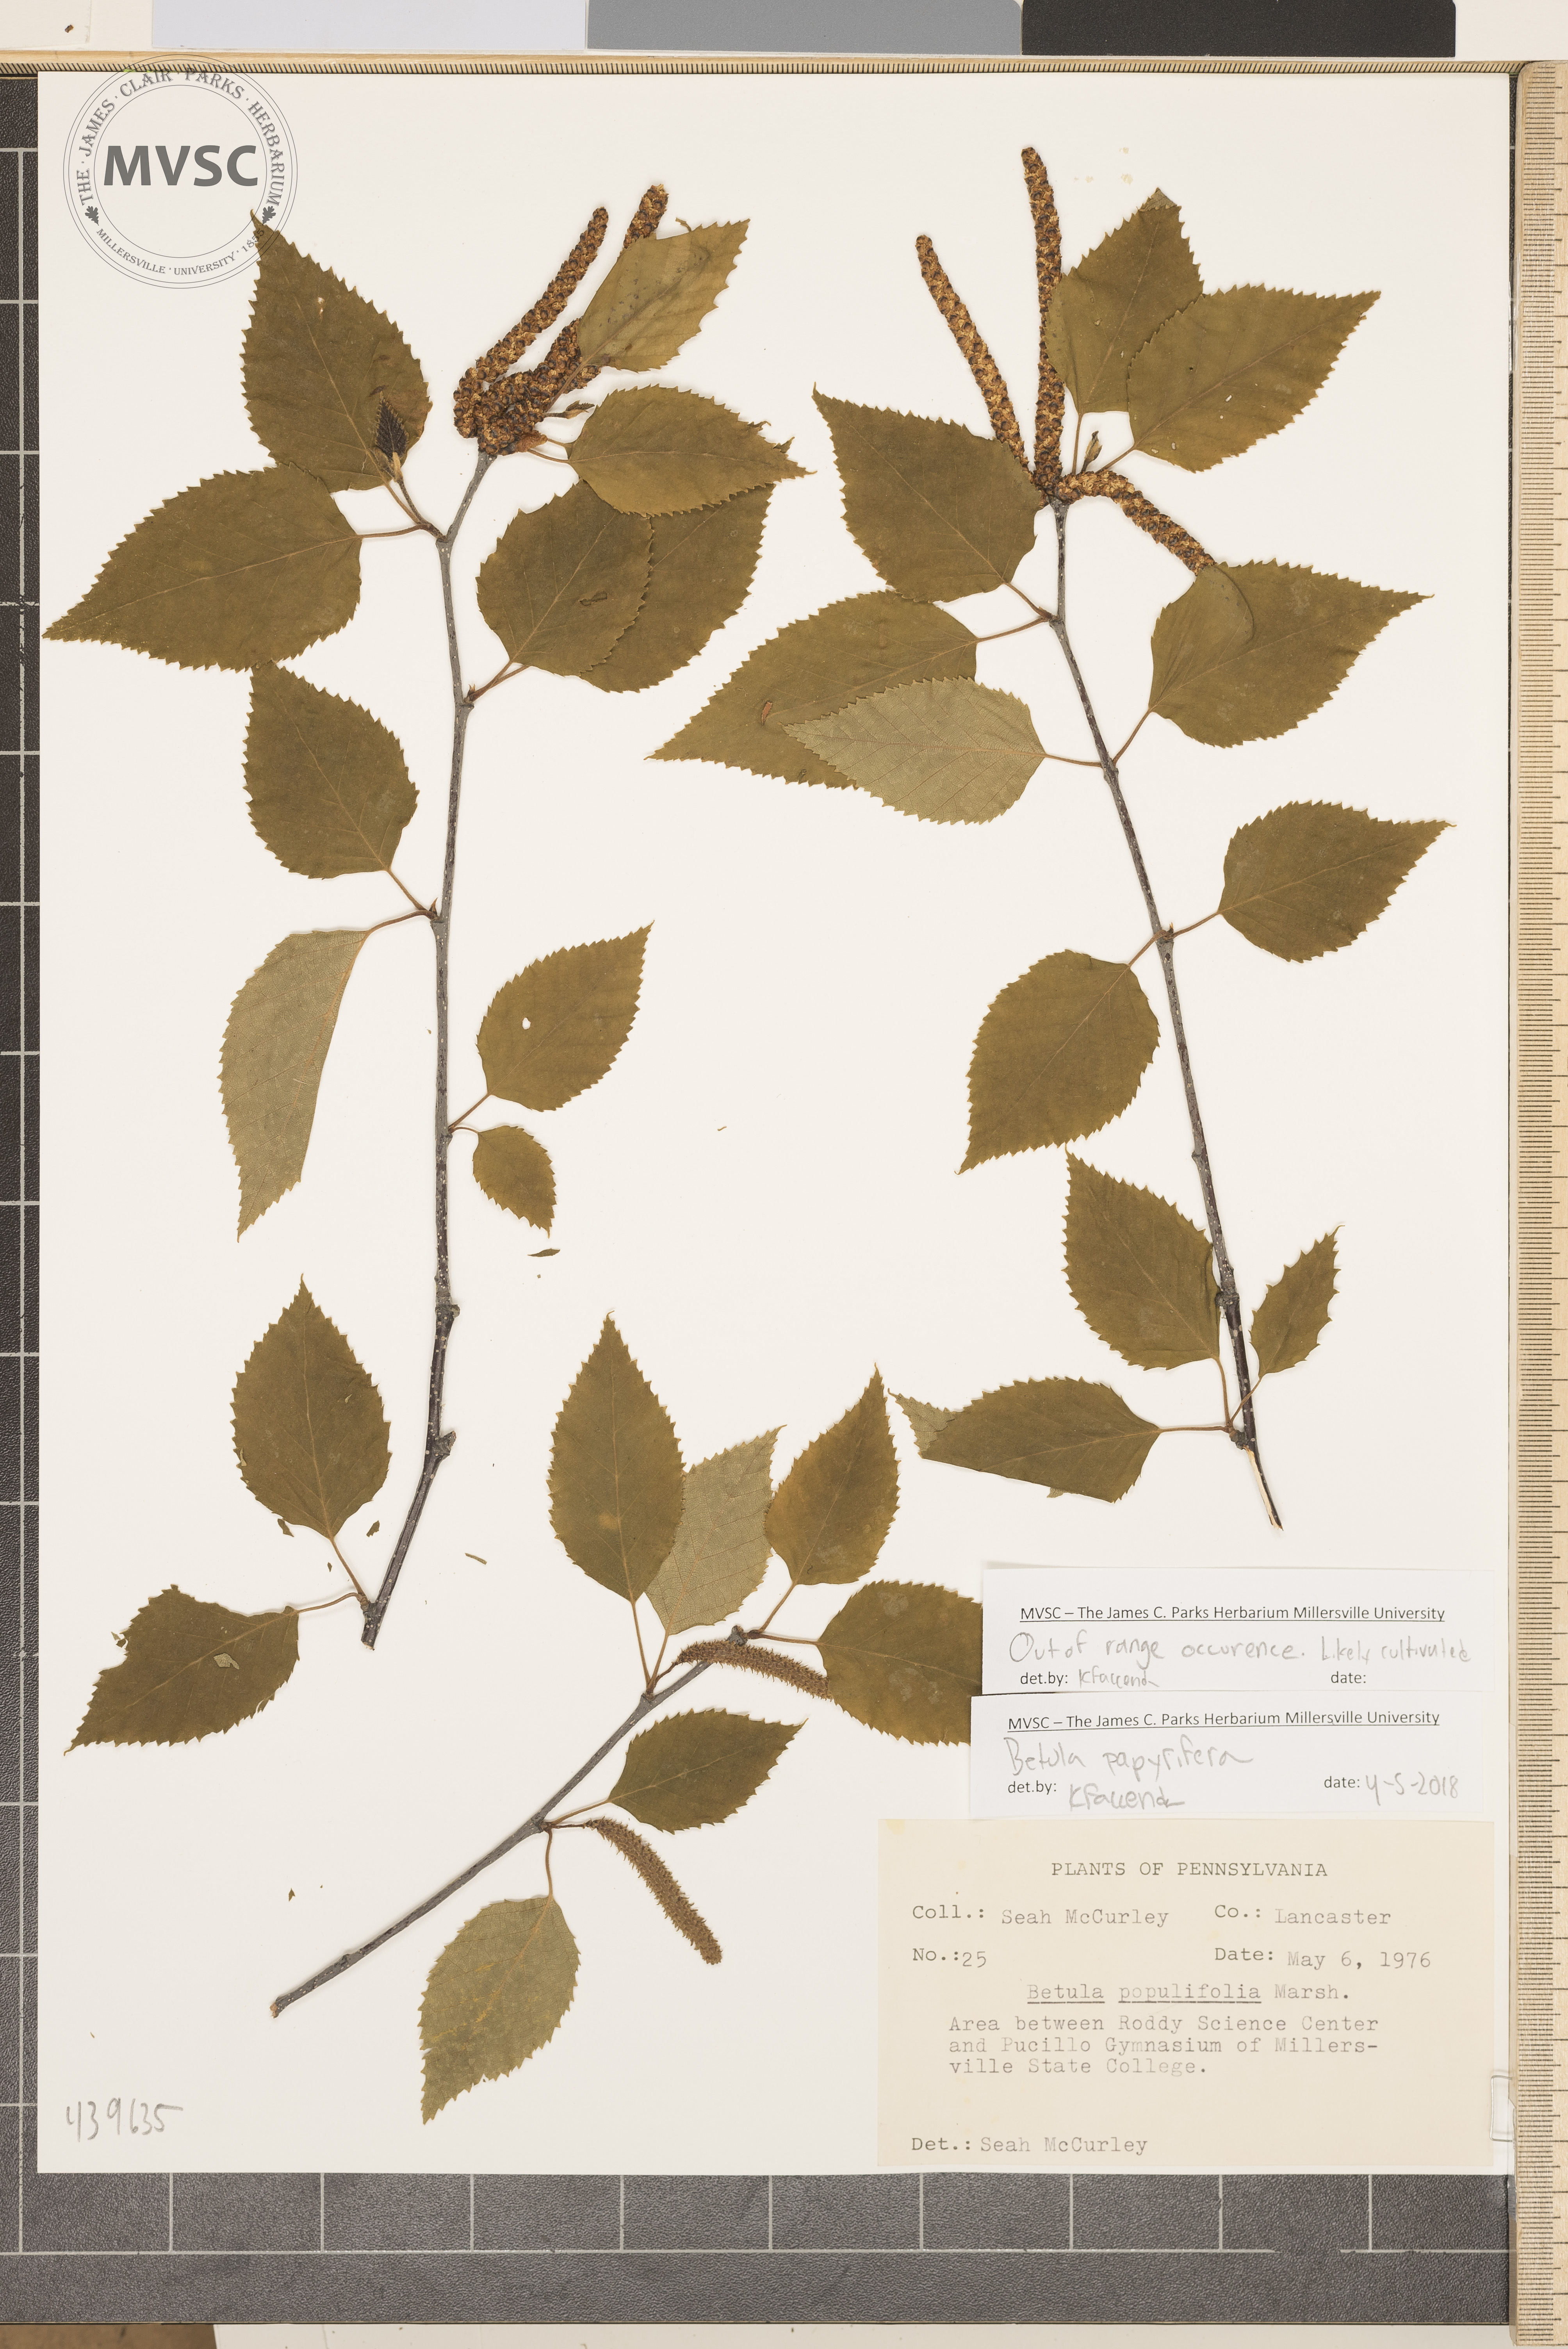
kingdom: Plantae
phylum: Tracheophyta
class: Magnoliopsida
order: Fagales
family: Betulaceae
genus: Betula
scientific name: Betula papyrifera
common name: Paper birch
